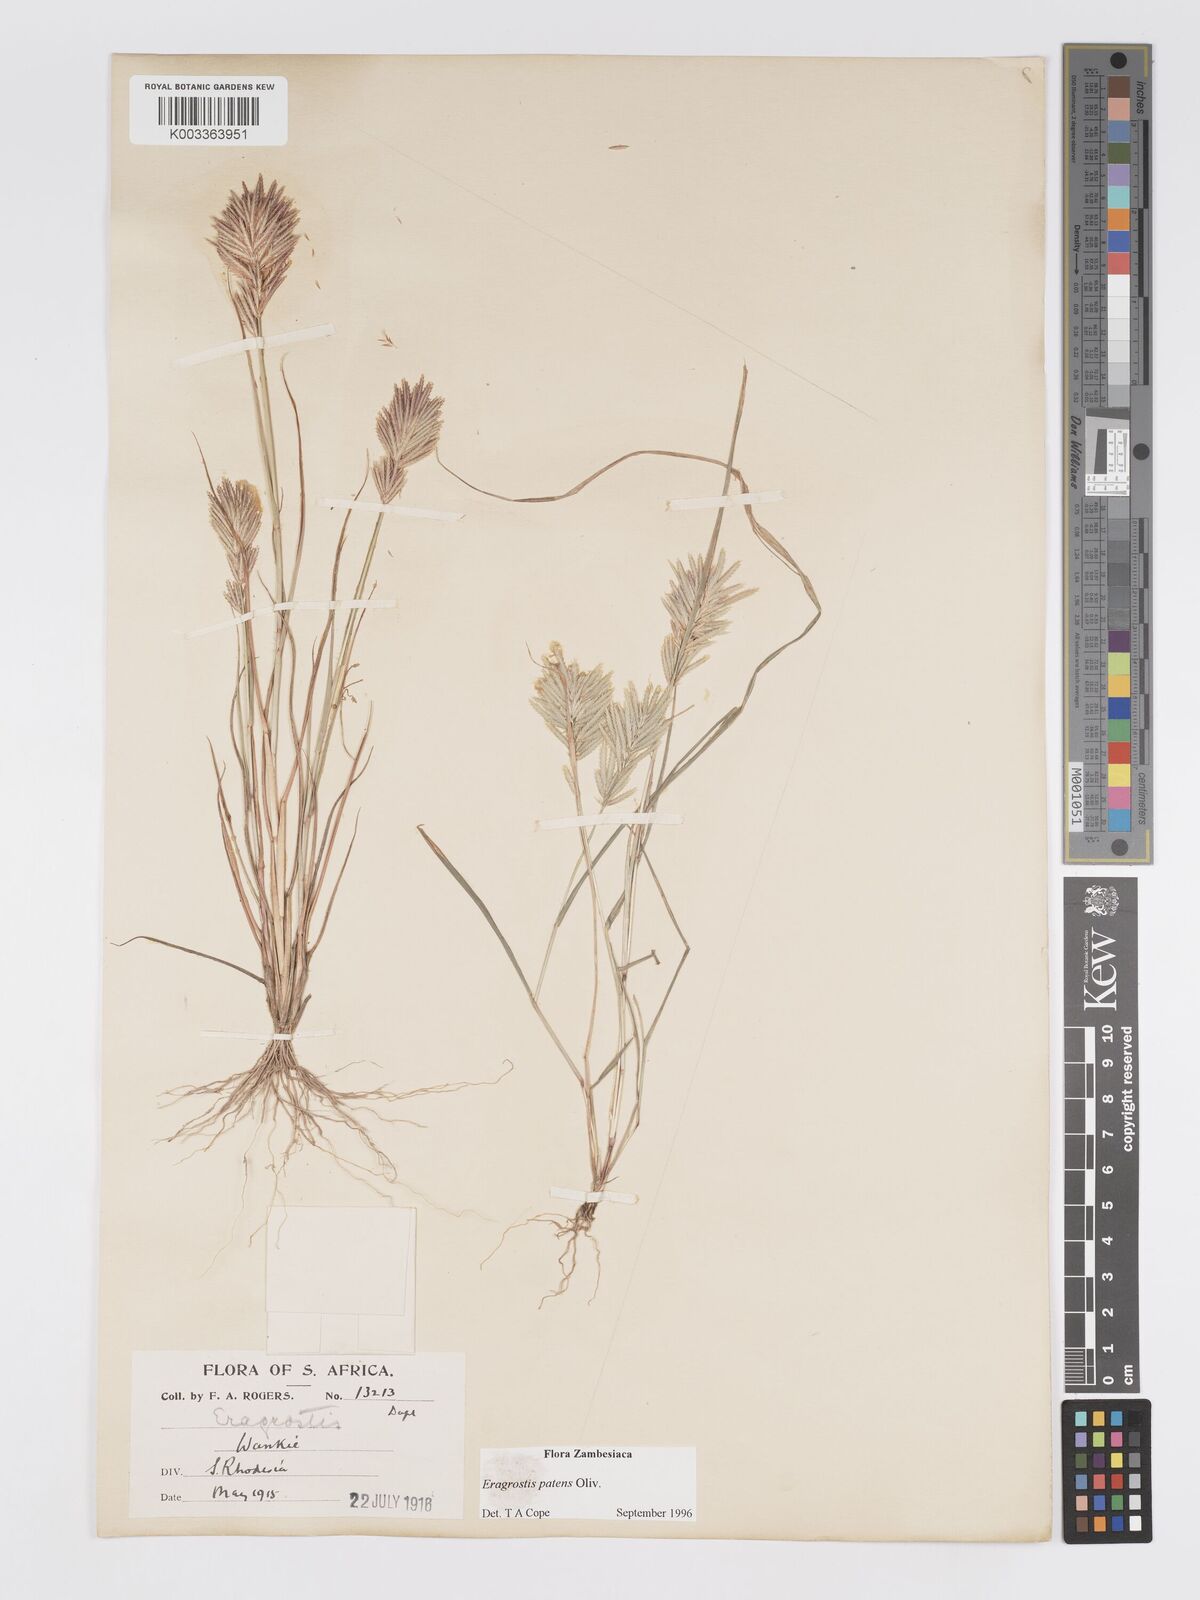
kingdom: Plantae
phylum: Tracheophyta
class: Liliopsida
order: Poales
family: Poaceae
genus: Eragrostis
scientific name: Eragrostis patens
